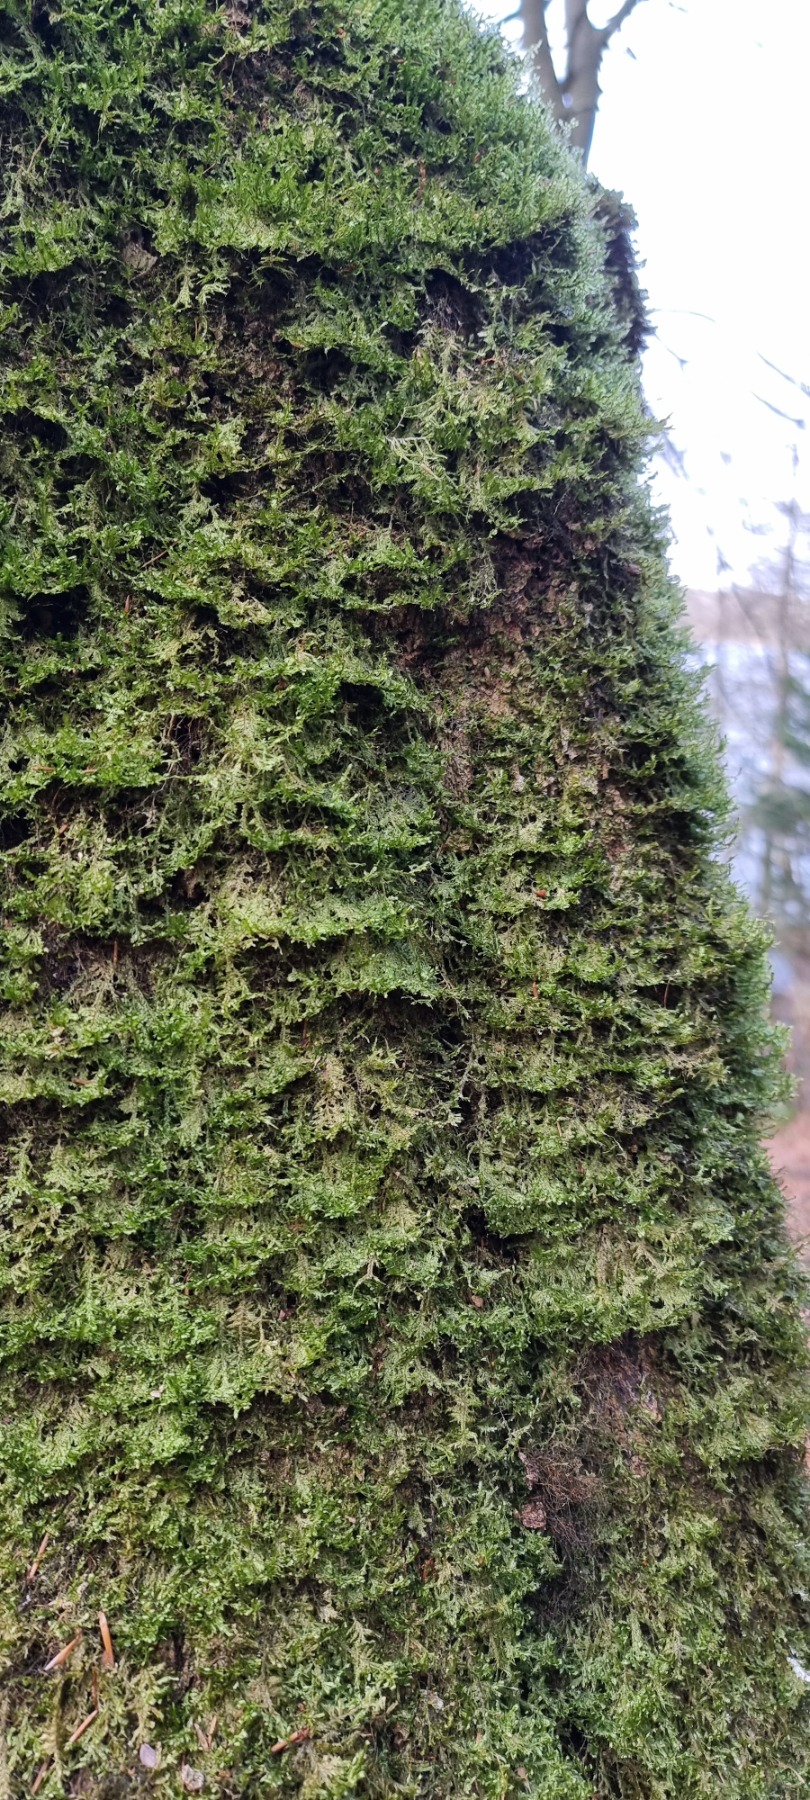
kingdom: Plantae
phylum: Bryophyta
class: Bryopsida
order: Hypnales
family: Neckeraceae
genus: Alleniella
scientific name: Alleniella complanata
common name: Almindelig fladmos
